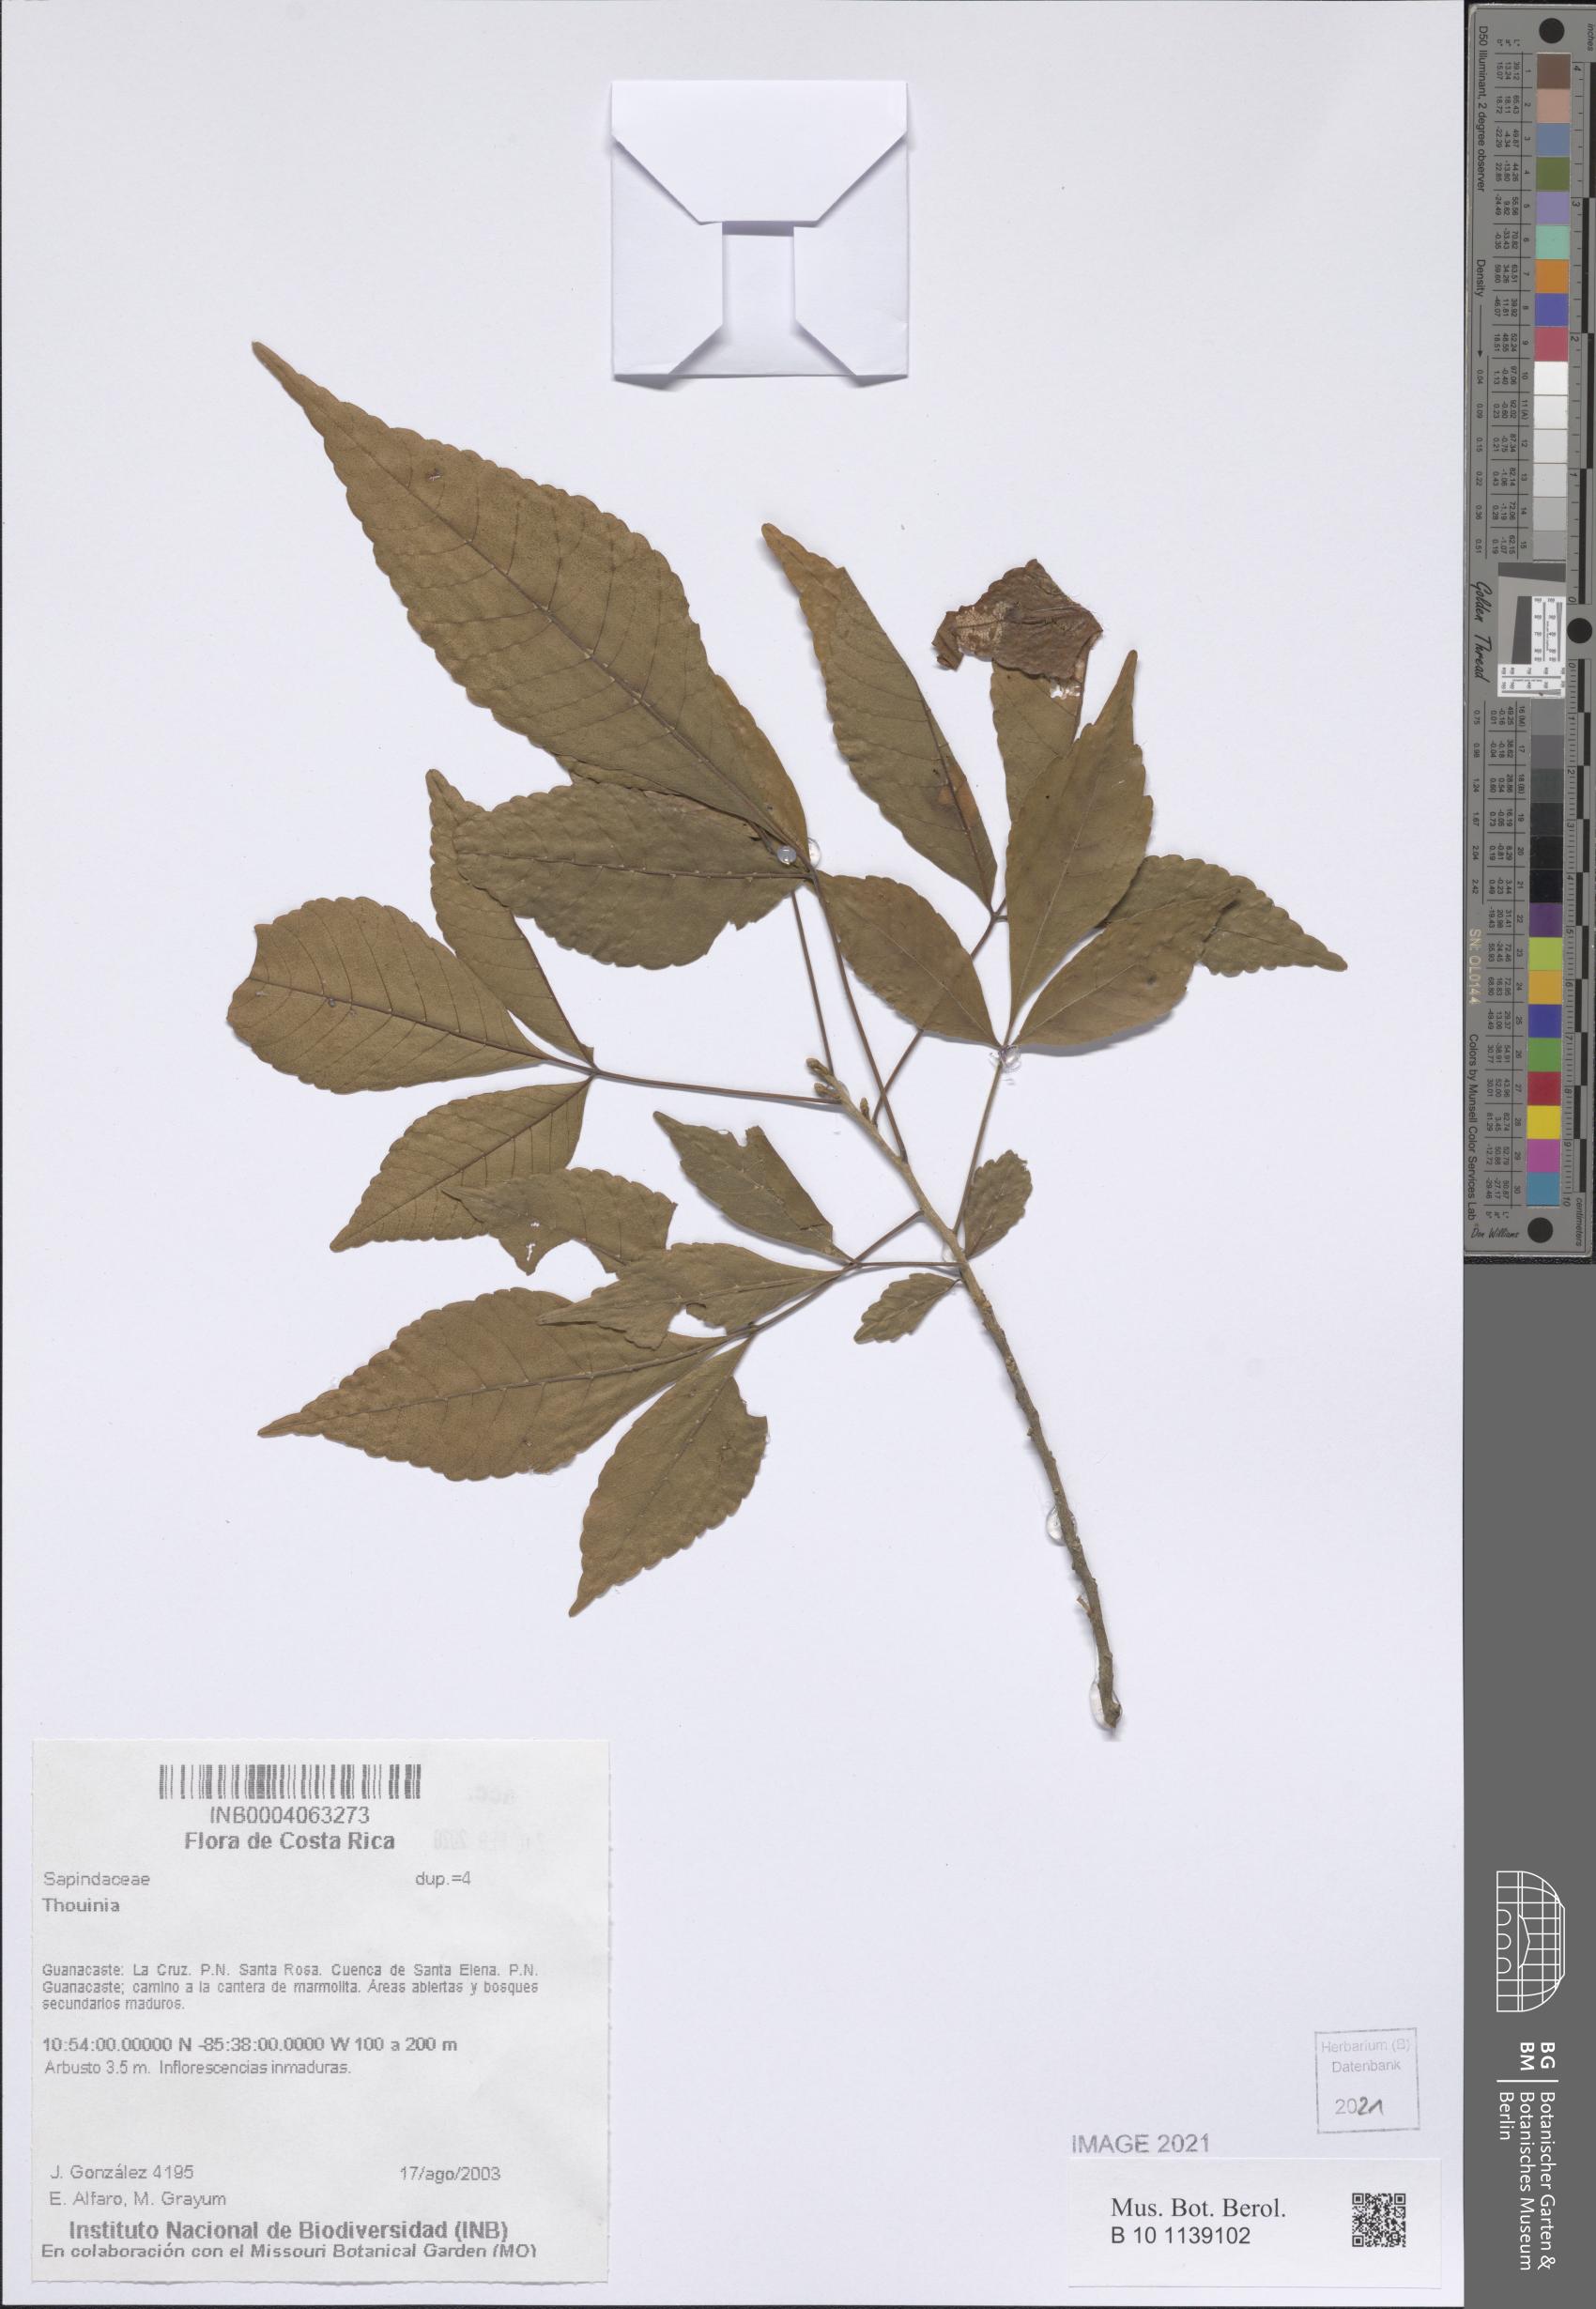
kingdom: Plantae
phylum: Tracheophyta
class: Magnoliopsida
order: Sapindales
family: Sapindaceae
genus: Thouinia
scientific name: Thouinia
